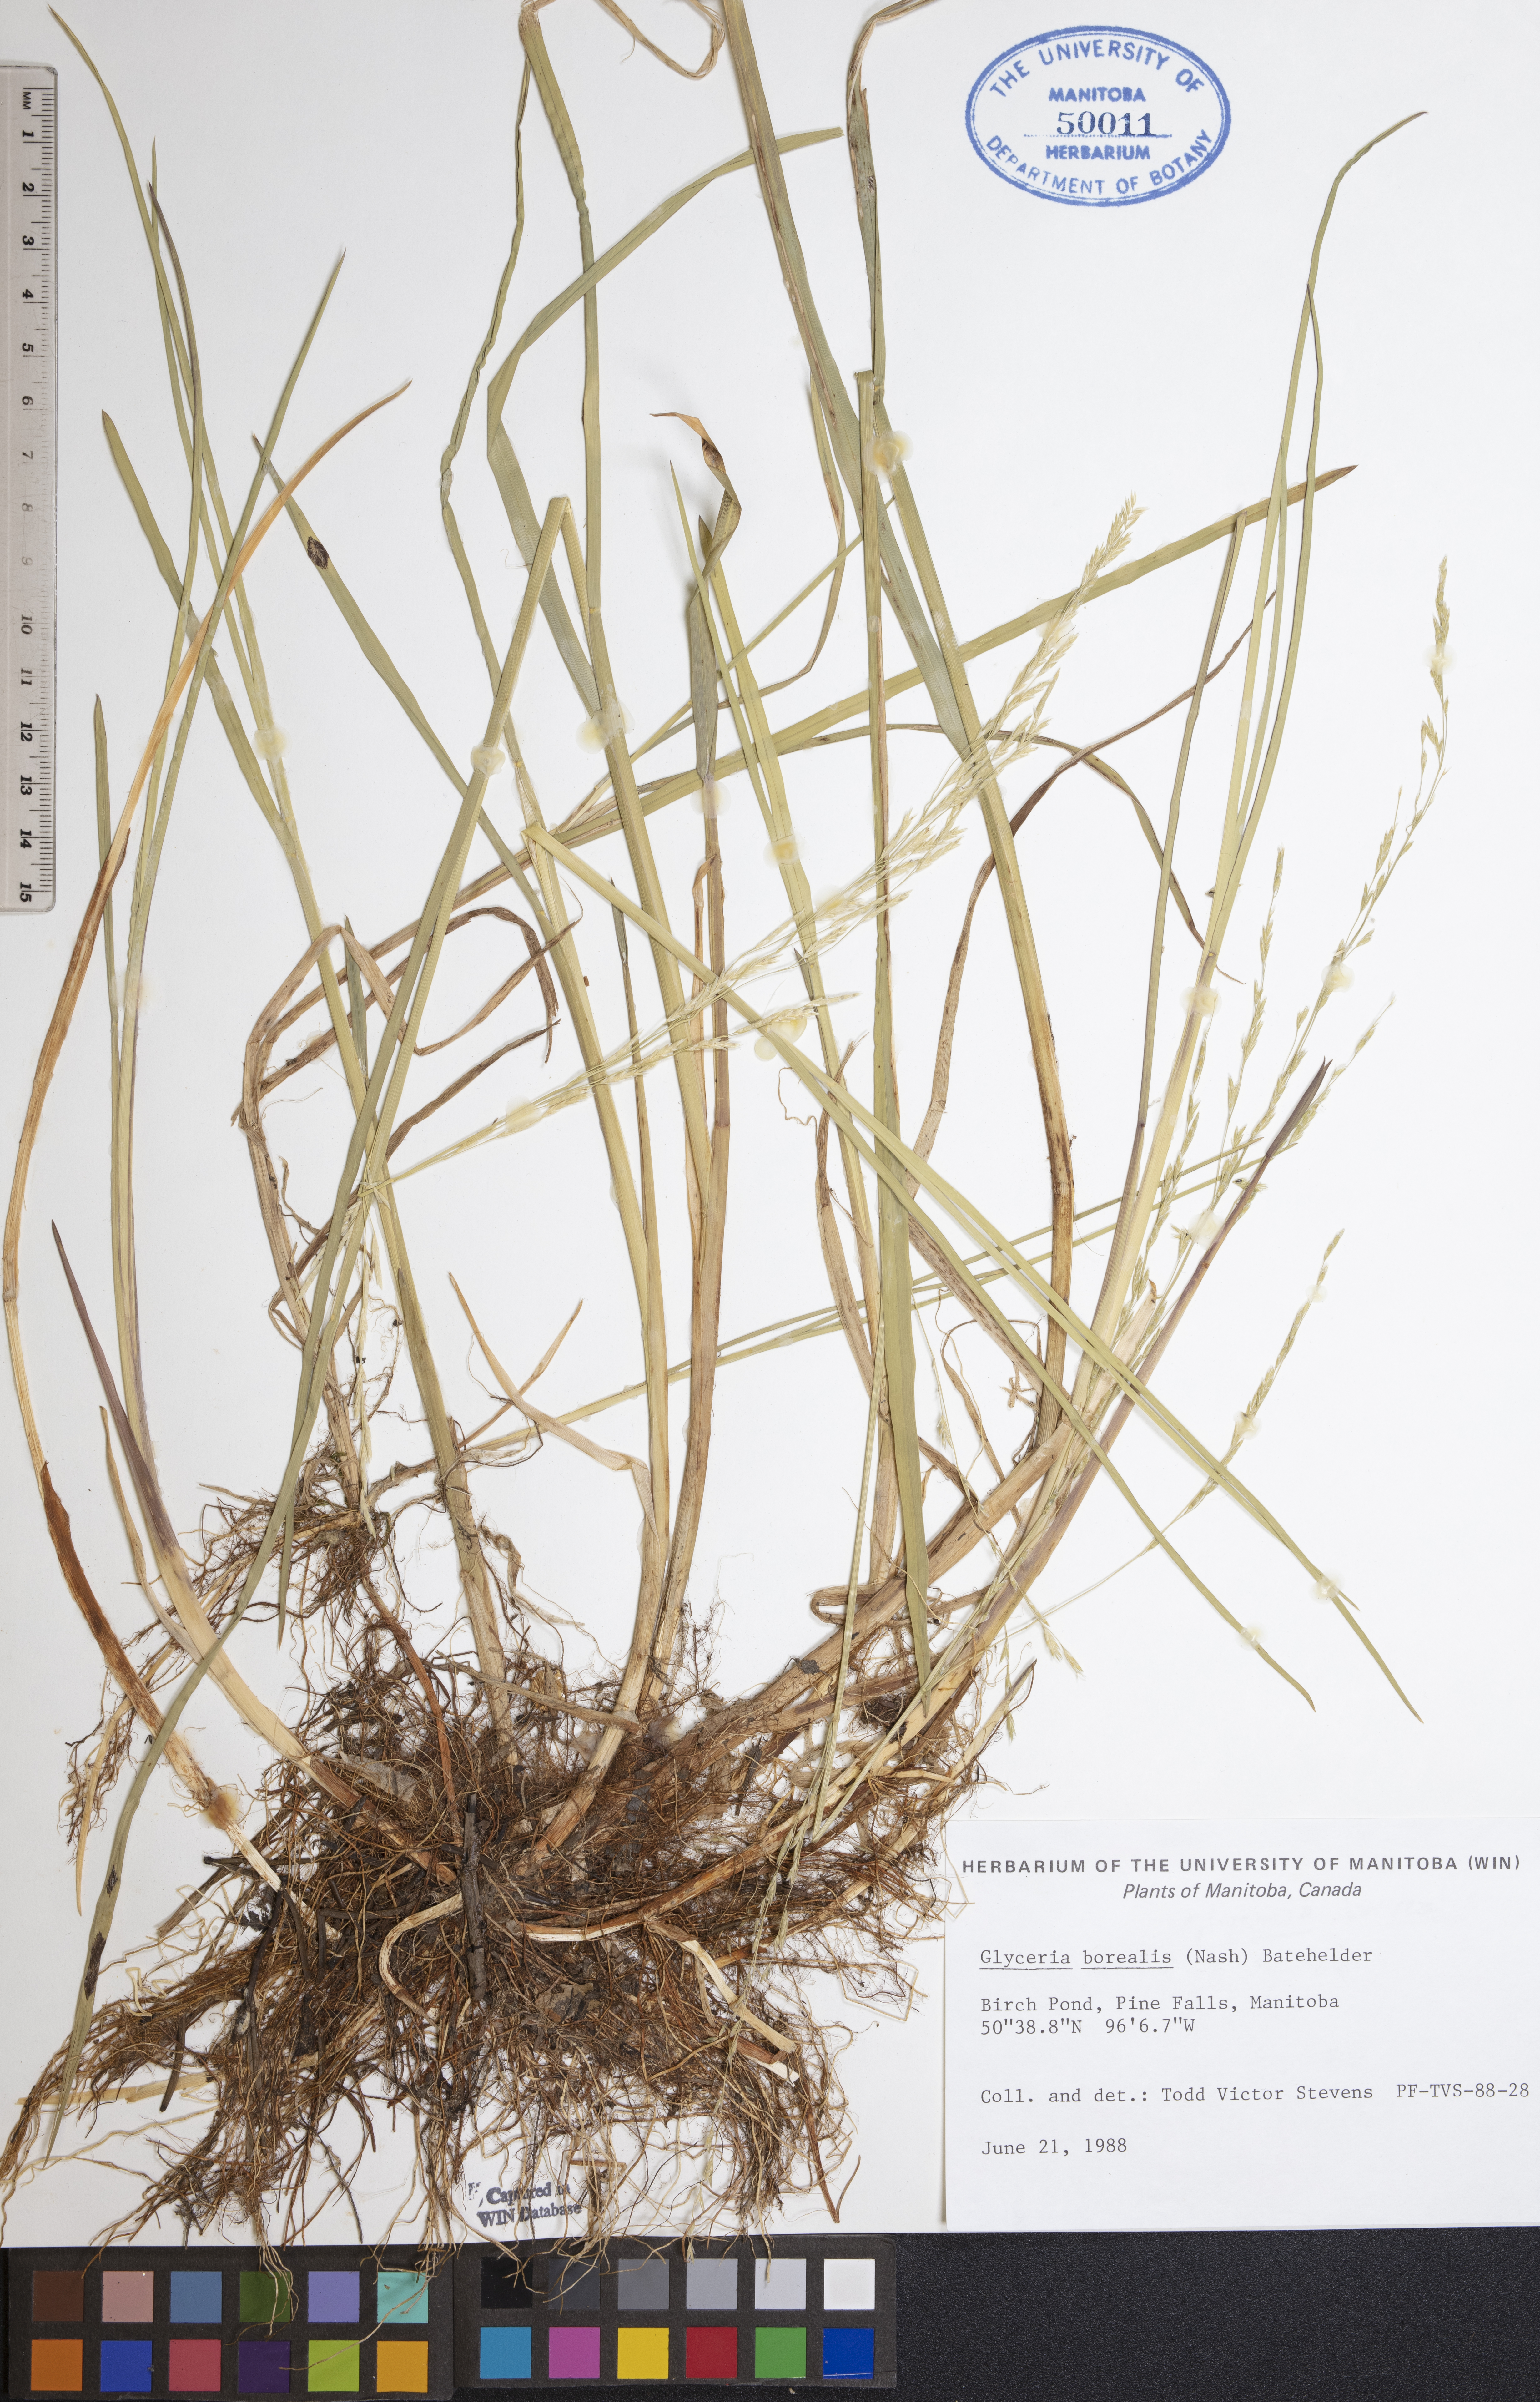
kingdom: Plantae
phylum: Tracheophyta
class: Liliopsida
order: Poales
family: Poaceae
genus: Glyceria
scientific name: Glyceria borealis
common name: Boreal glyceria
